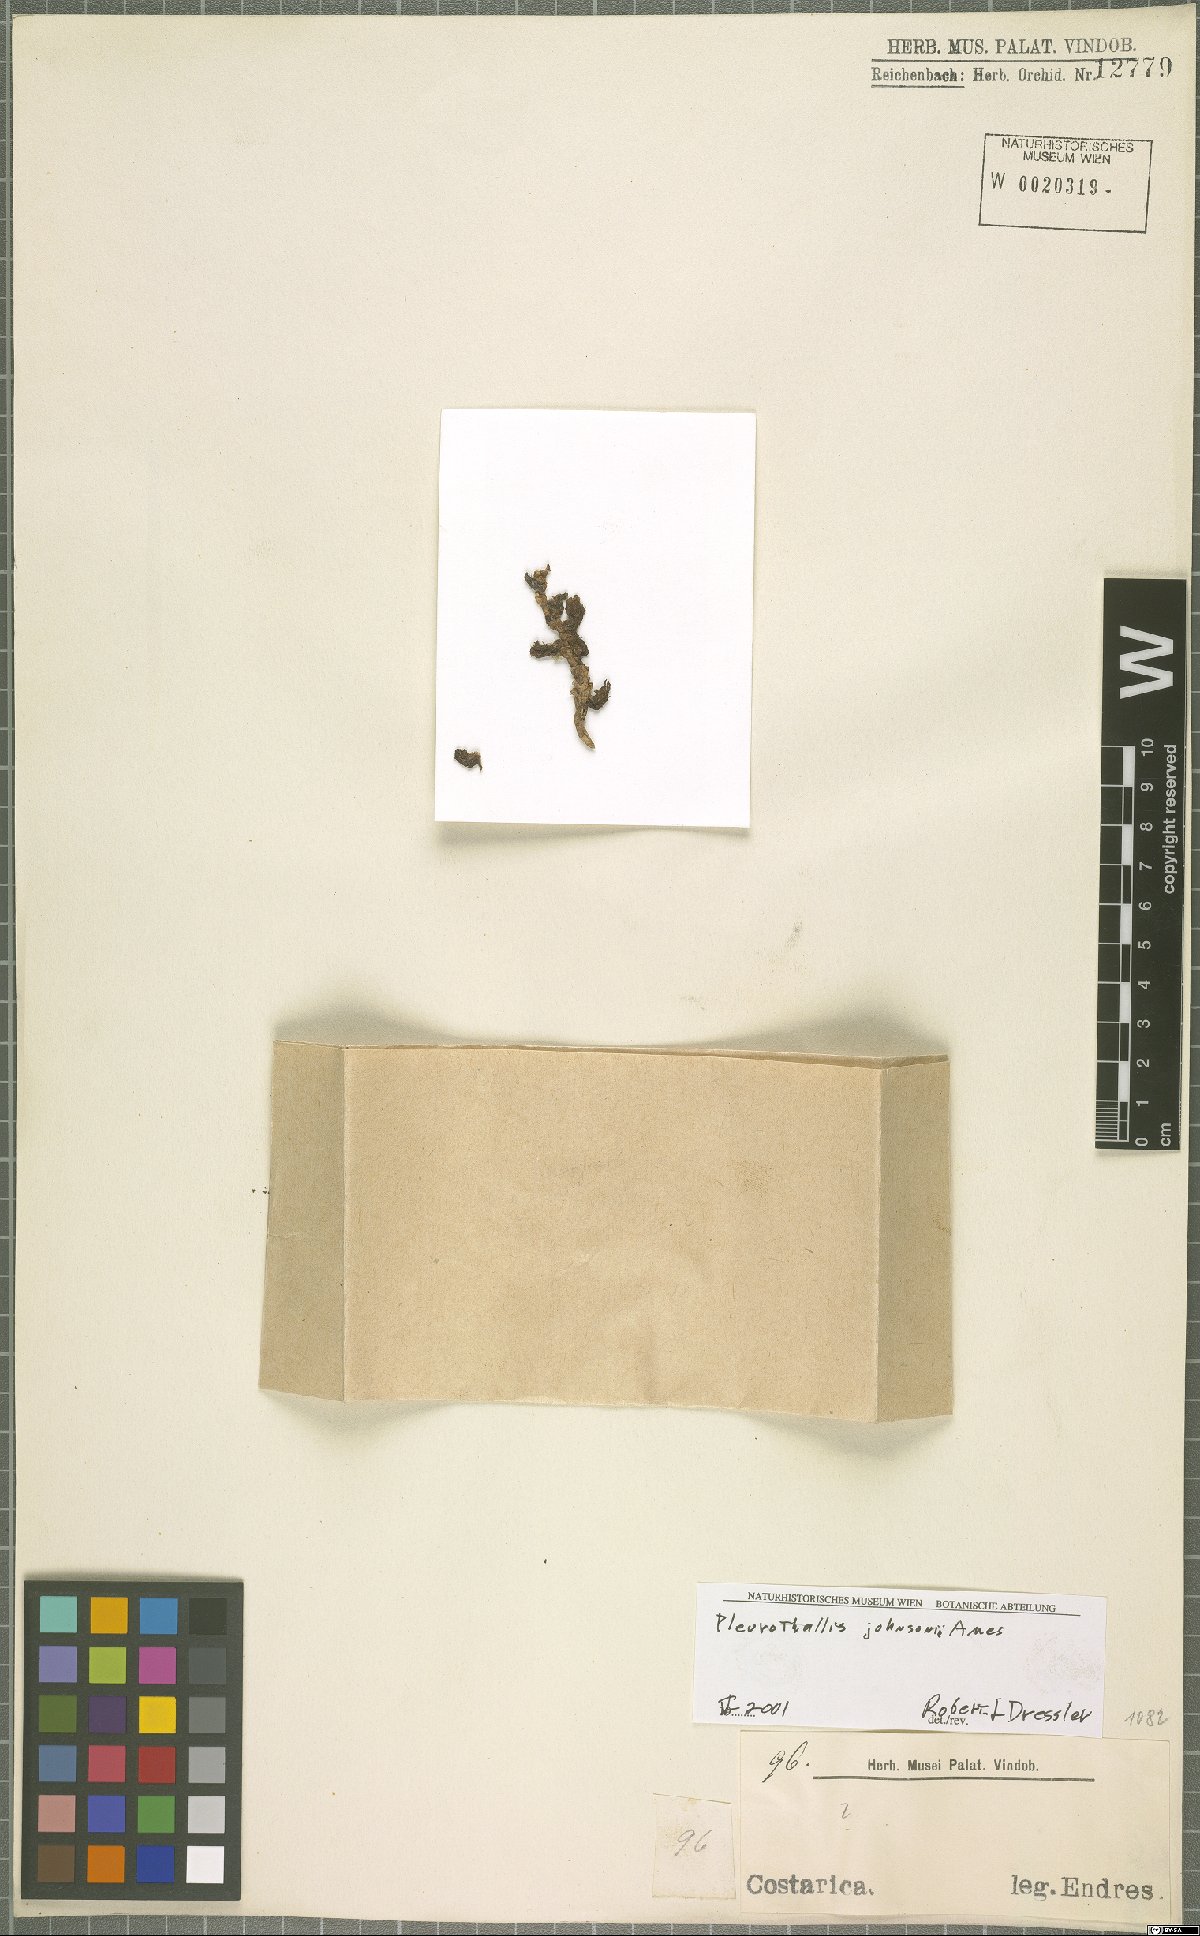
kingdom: Plantae
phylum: Tracheophyta
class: Liliopsida
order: Asparagales
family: Orchidaceae
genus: Acianthera
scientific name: Acianthera johnsonii
